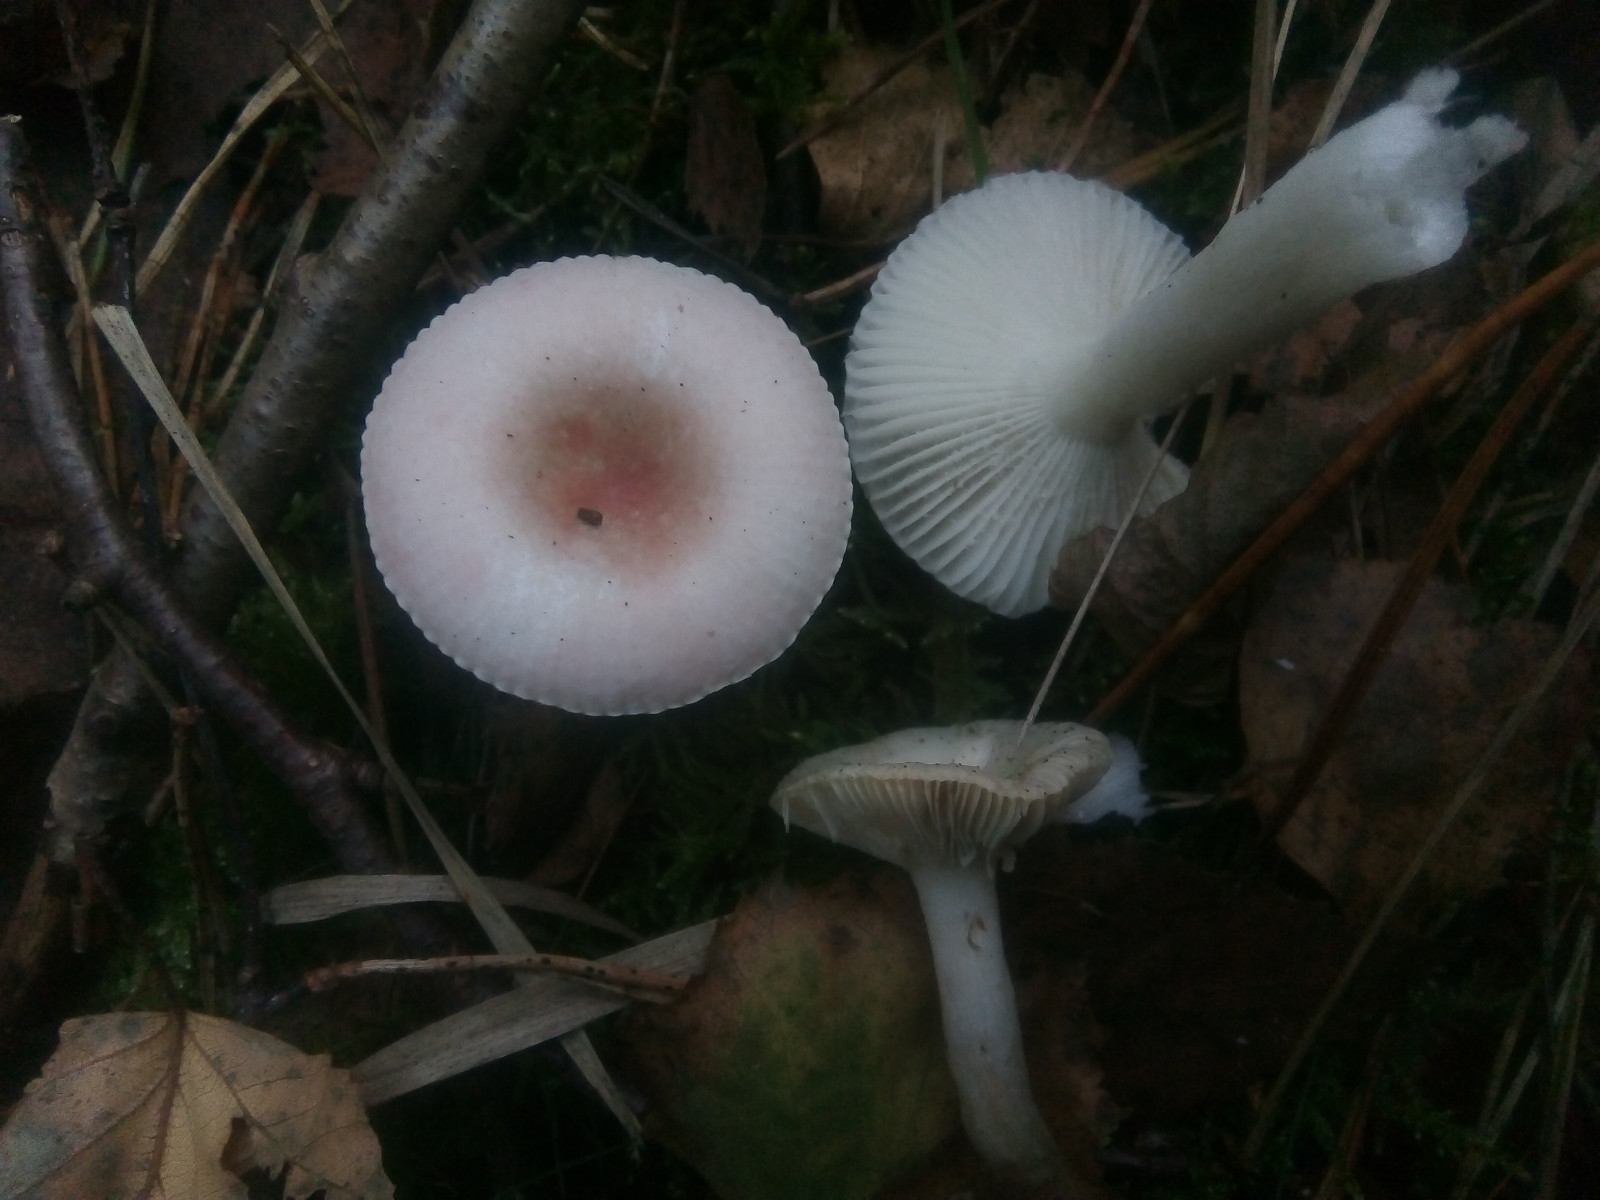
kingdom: Fungi
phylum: Basidiomycota
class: Agaricomycetes
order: Russulales
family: Russulaceae
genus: Russula
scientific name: Russula betularum
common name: bleg gift-skørhat
